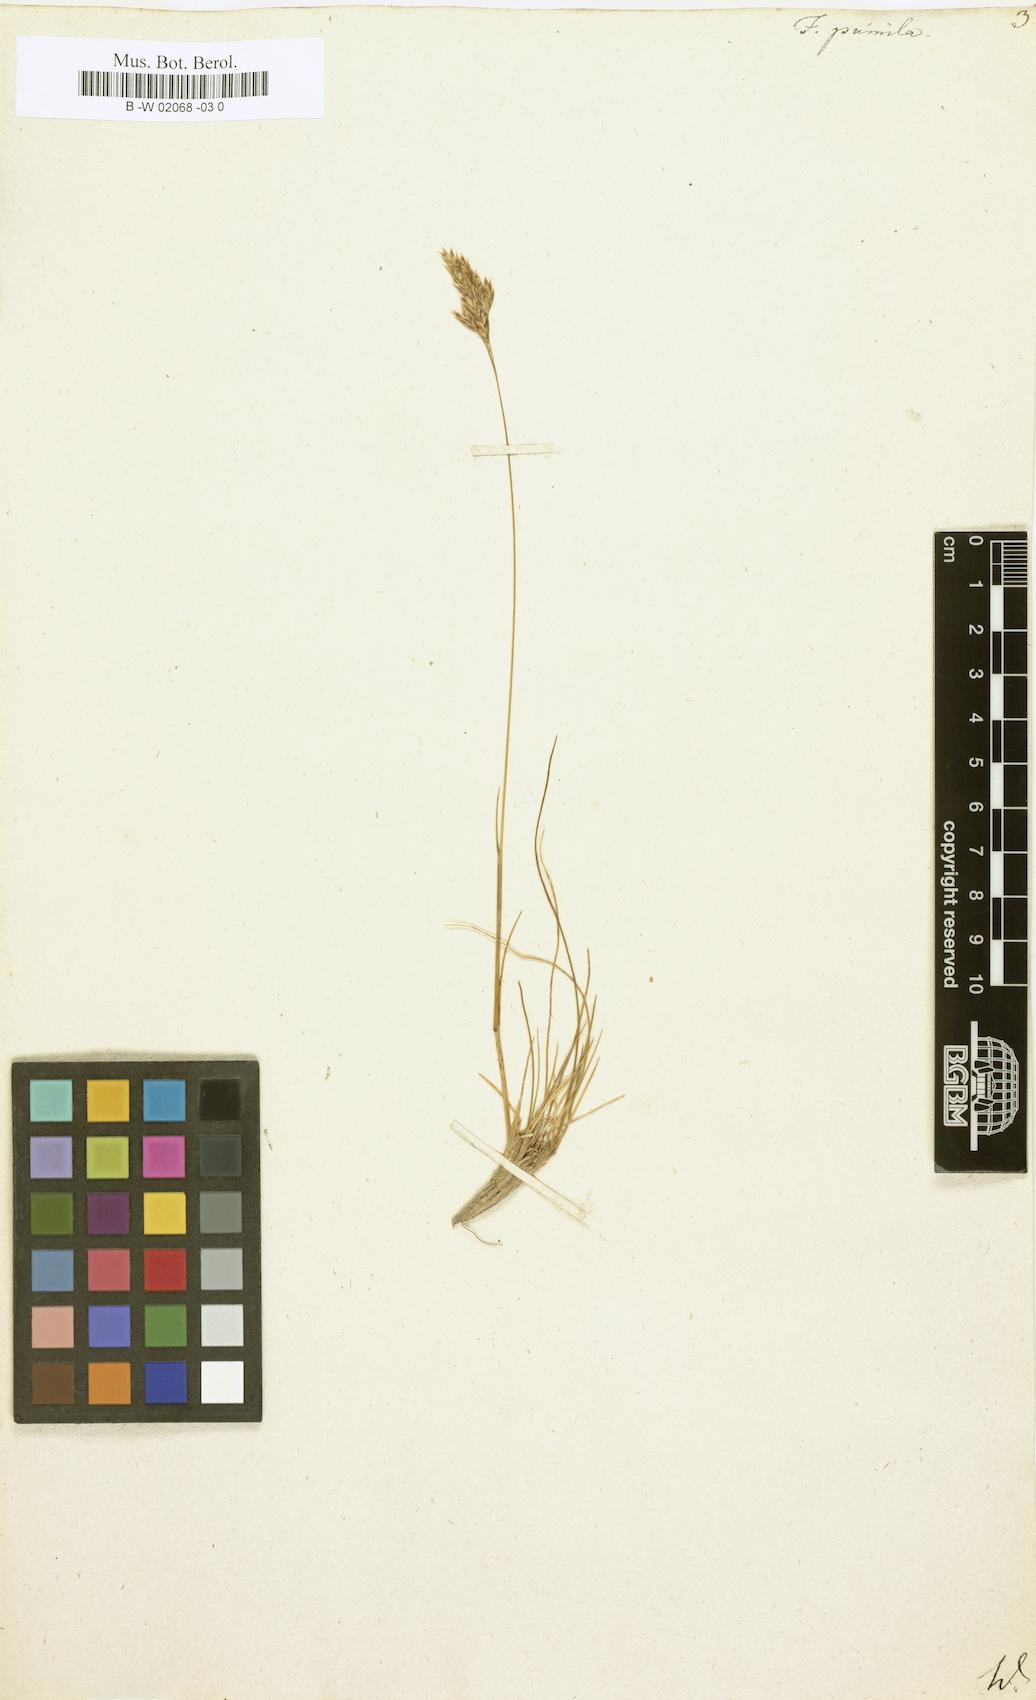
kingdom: Plantae
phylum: Tracheophyta
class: Liliopsida
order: Poales
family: Poaceae
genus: Festuca
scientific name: Festuca
